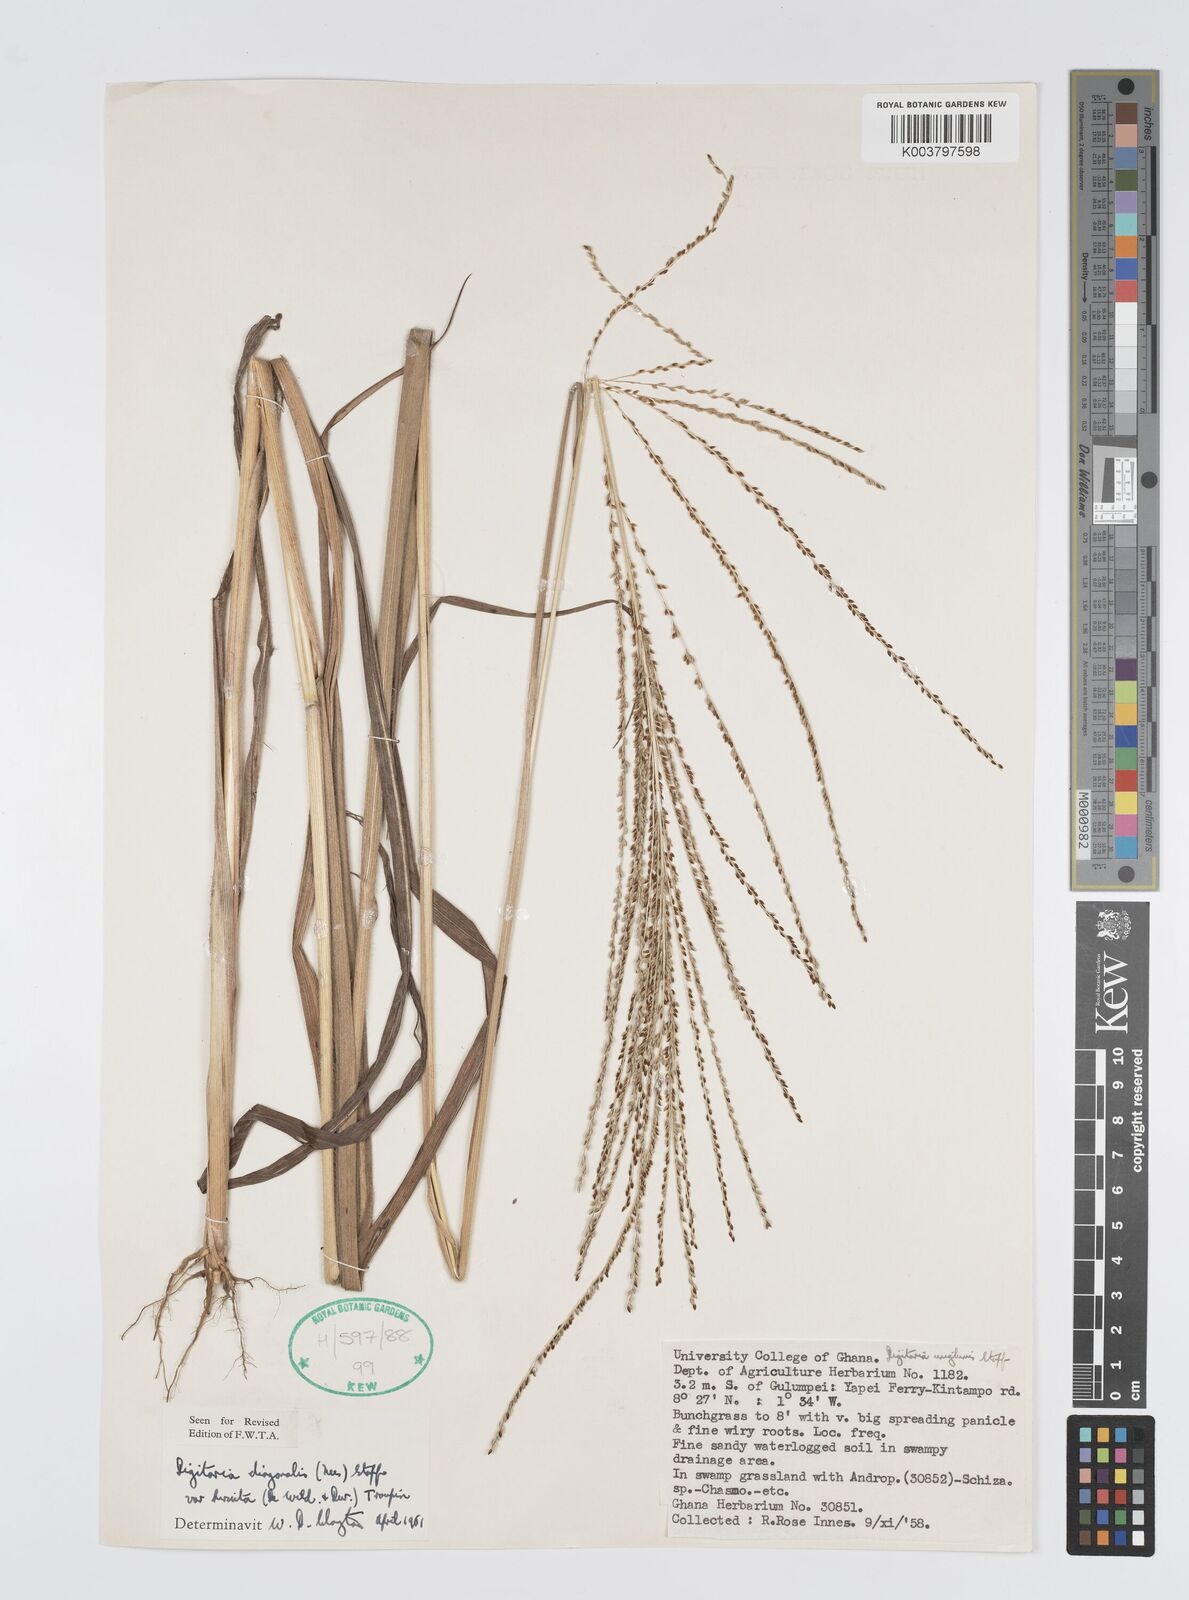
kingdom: Plantae
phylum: Tracheophyta
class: Liliopsida
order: Poales
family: Poaceae
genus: Digitaria
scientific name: Digitaria diagonalis
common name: Brown-seed finger grass
